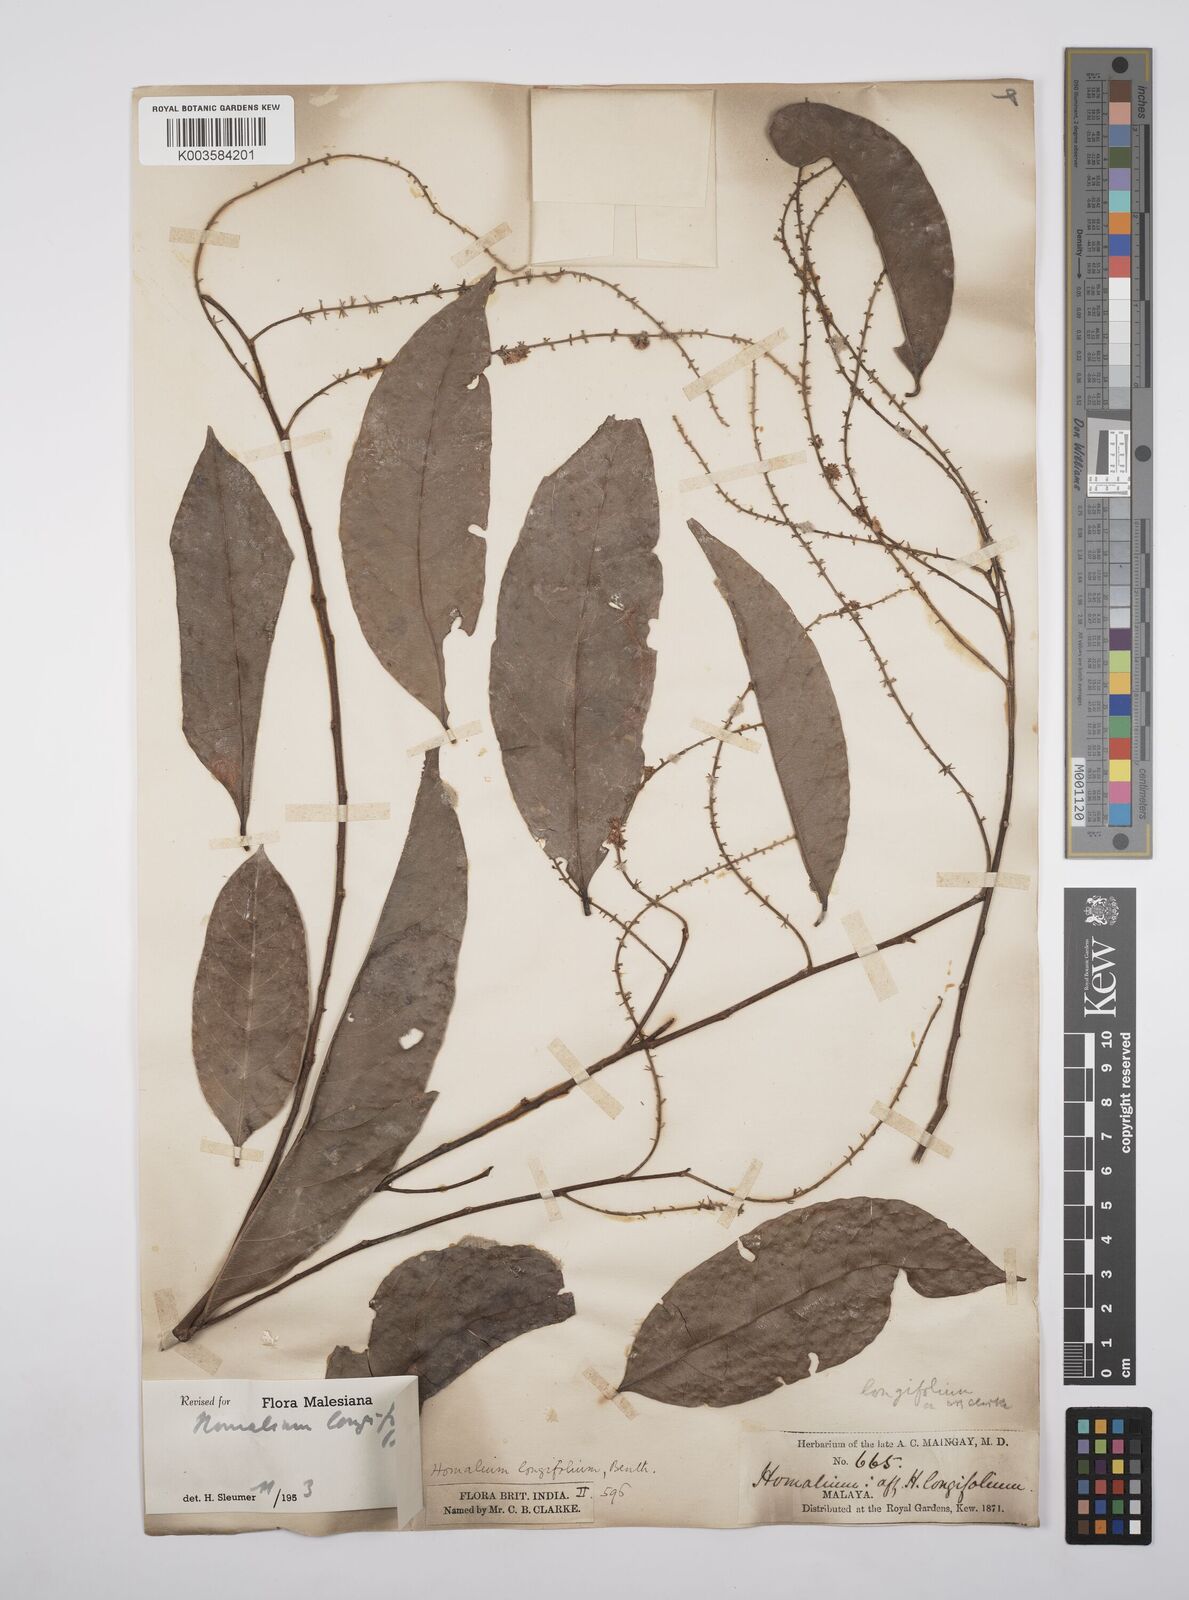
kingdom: Plantae
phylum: Tracheophyta
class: Magnoliopsida
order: Malpighiales
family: Salicaceae
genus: Homalium
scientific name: Homalium longifolium
